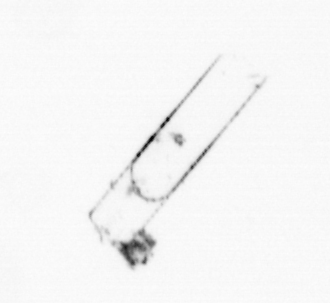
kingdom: Chromista
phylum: Ochrophyta
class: Bacillariophyceae
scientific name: Bacillariophyceae
